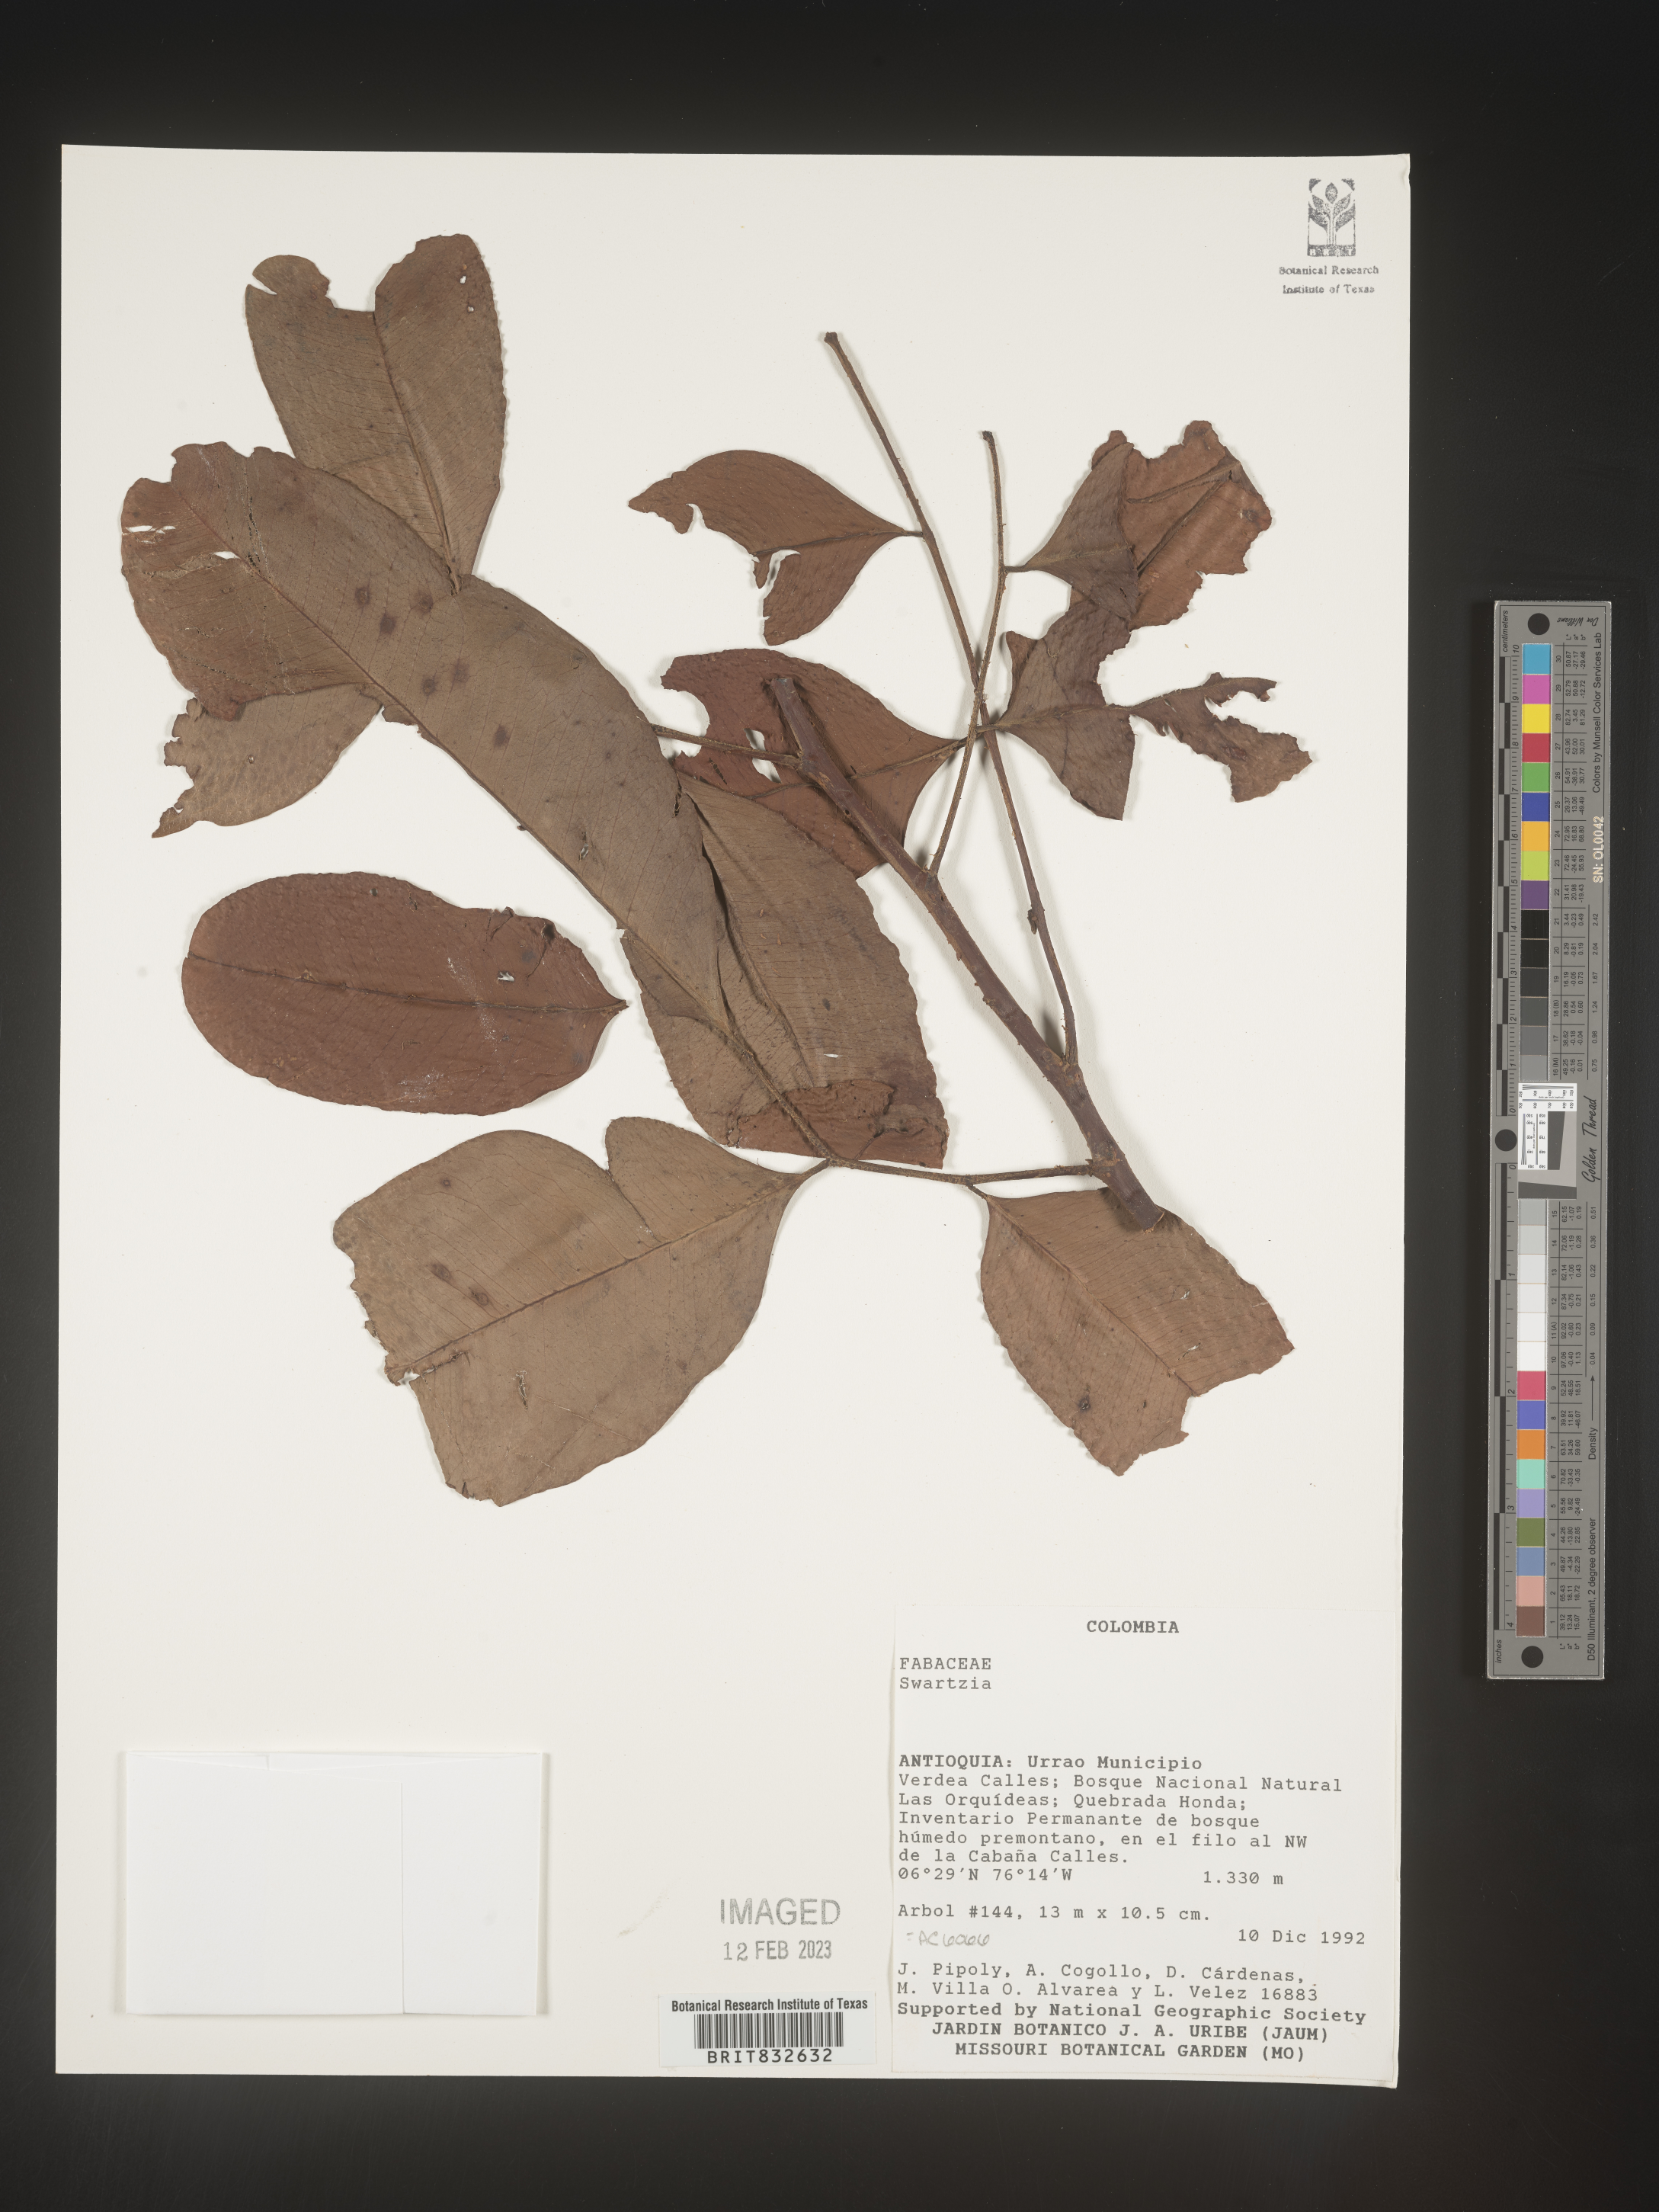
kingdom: Plantae
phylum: Tracheophyta
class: Magnoliopsida
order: Fabales
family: Fabaceae
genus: Swartzia
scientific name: Swartzia
